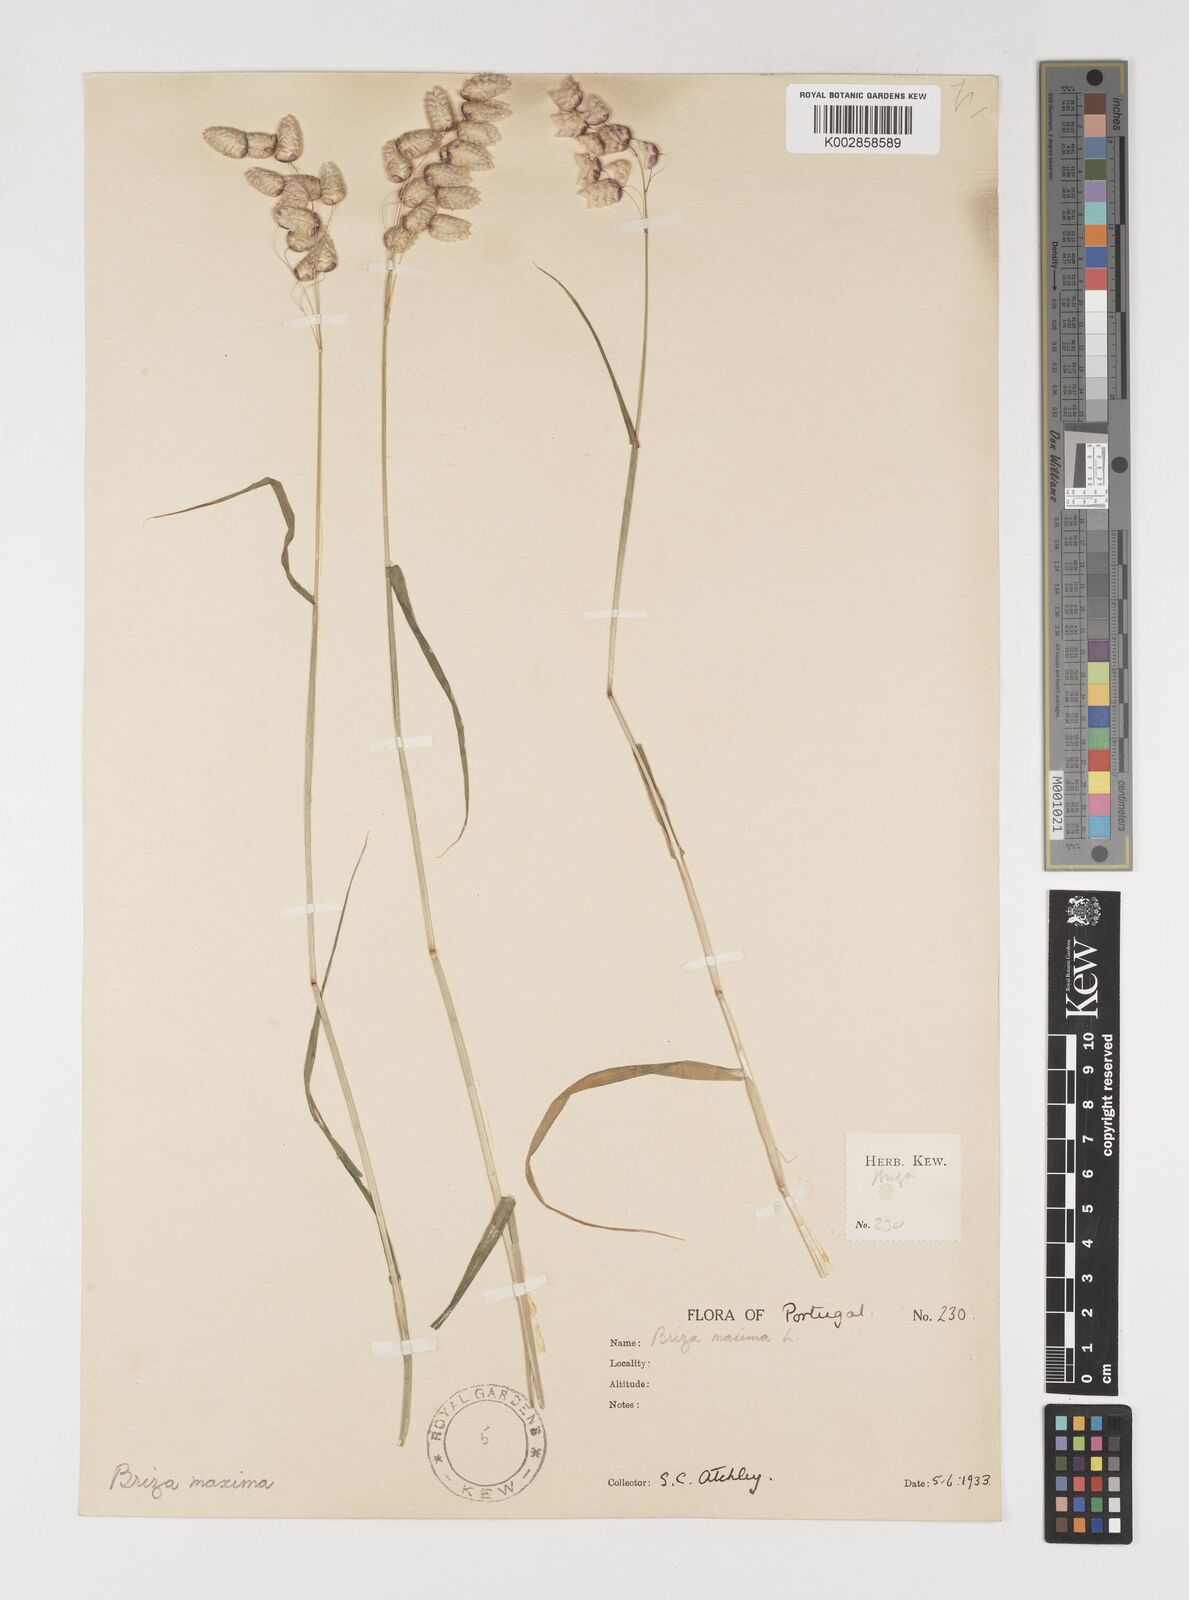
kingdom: Plantae
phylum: Tracheophyta
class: Liliopsida
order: Poales
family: Poaceae
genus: Briza
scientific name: Briza maxima
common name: Big quakinggrass
